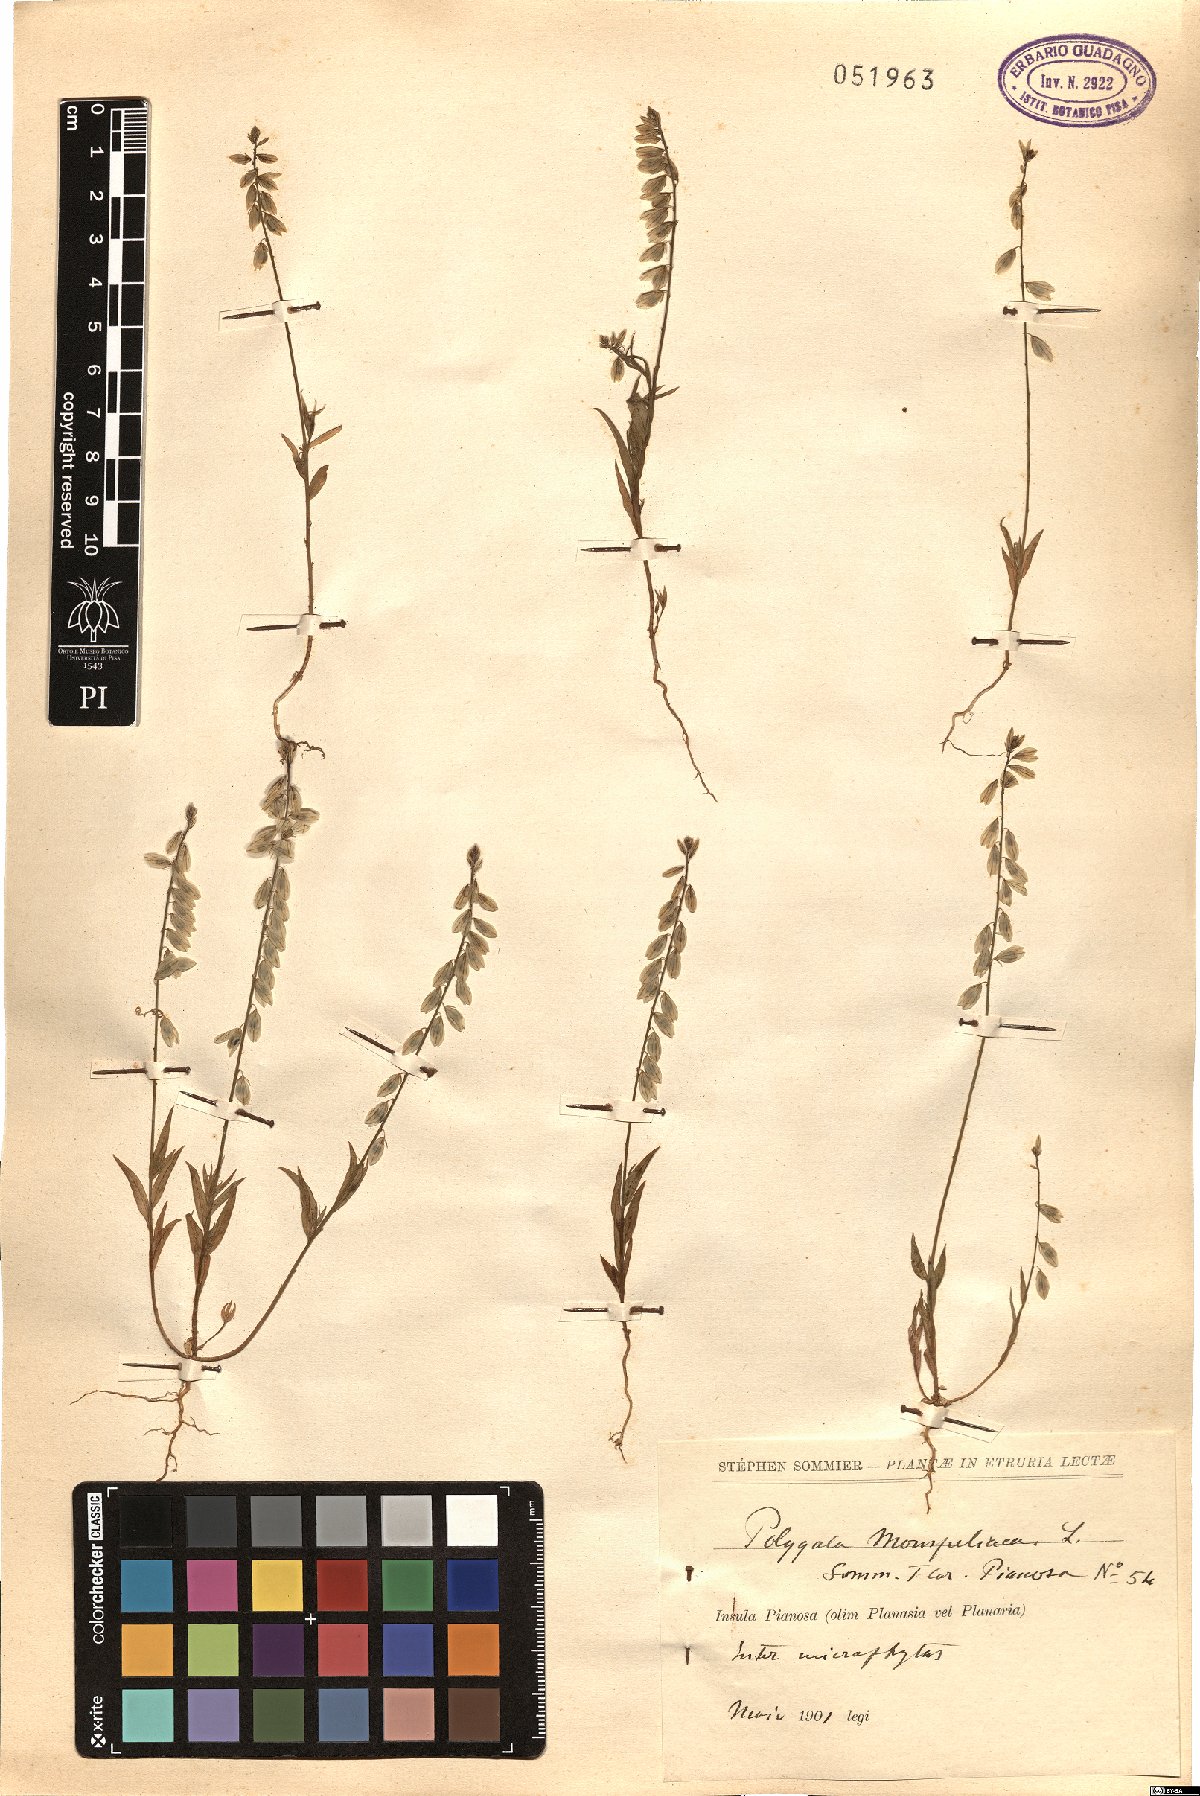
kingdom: Plantae
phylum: Tracheophyta
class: Magnoliopsida
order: Fabales
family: Polygalaceae
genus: Polygala
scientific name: Polygala monspeliaca
